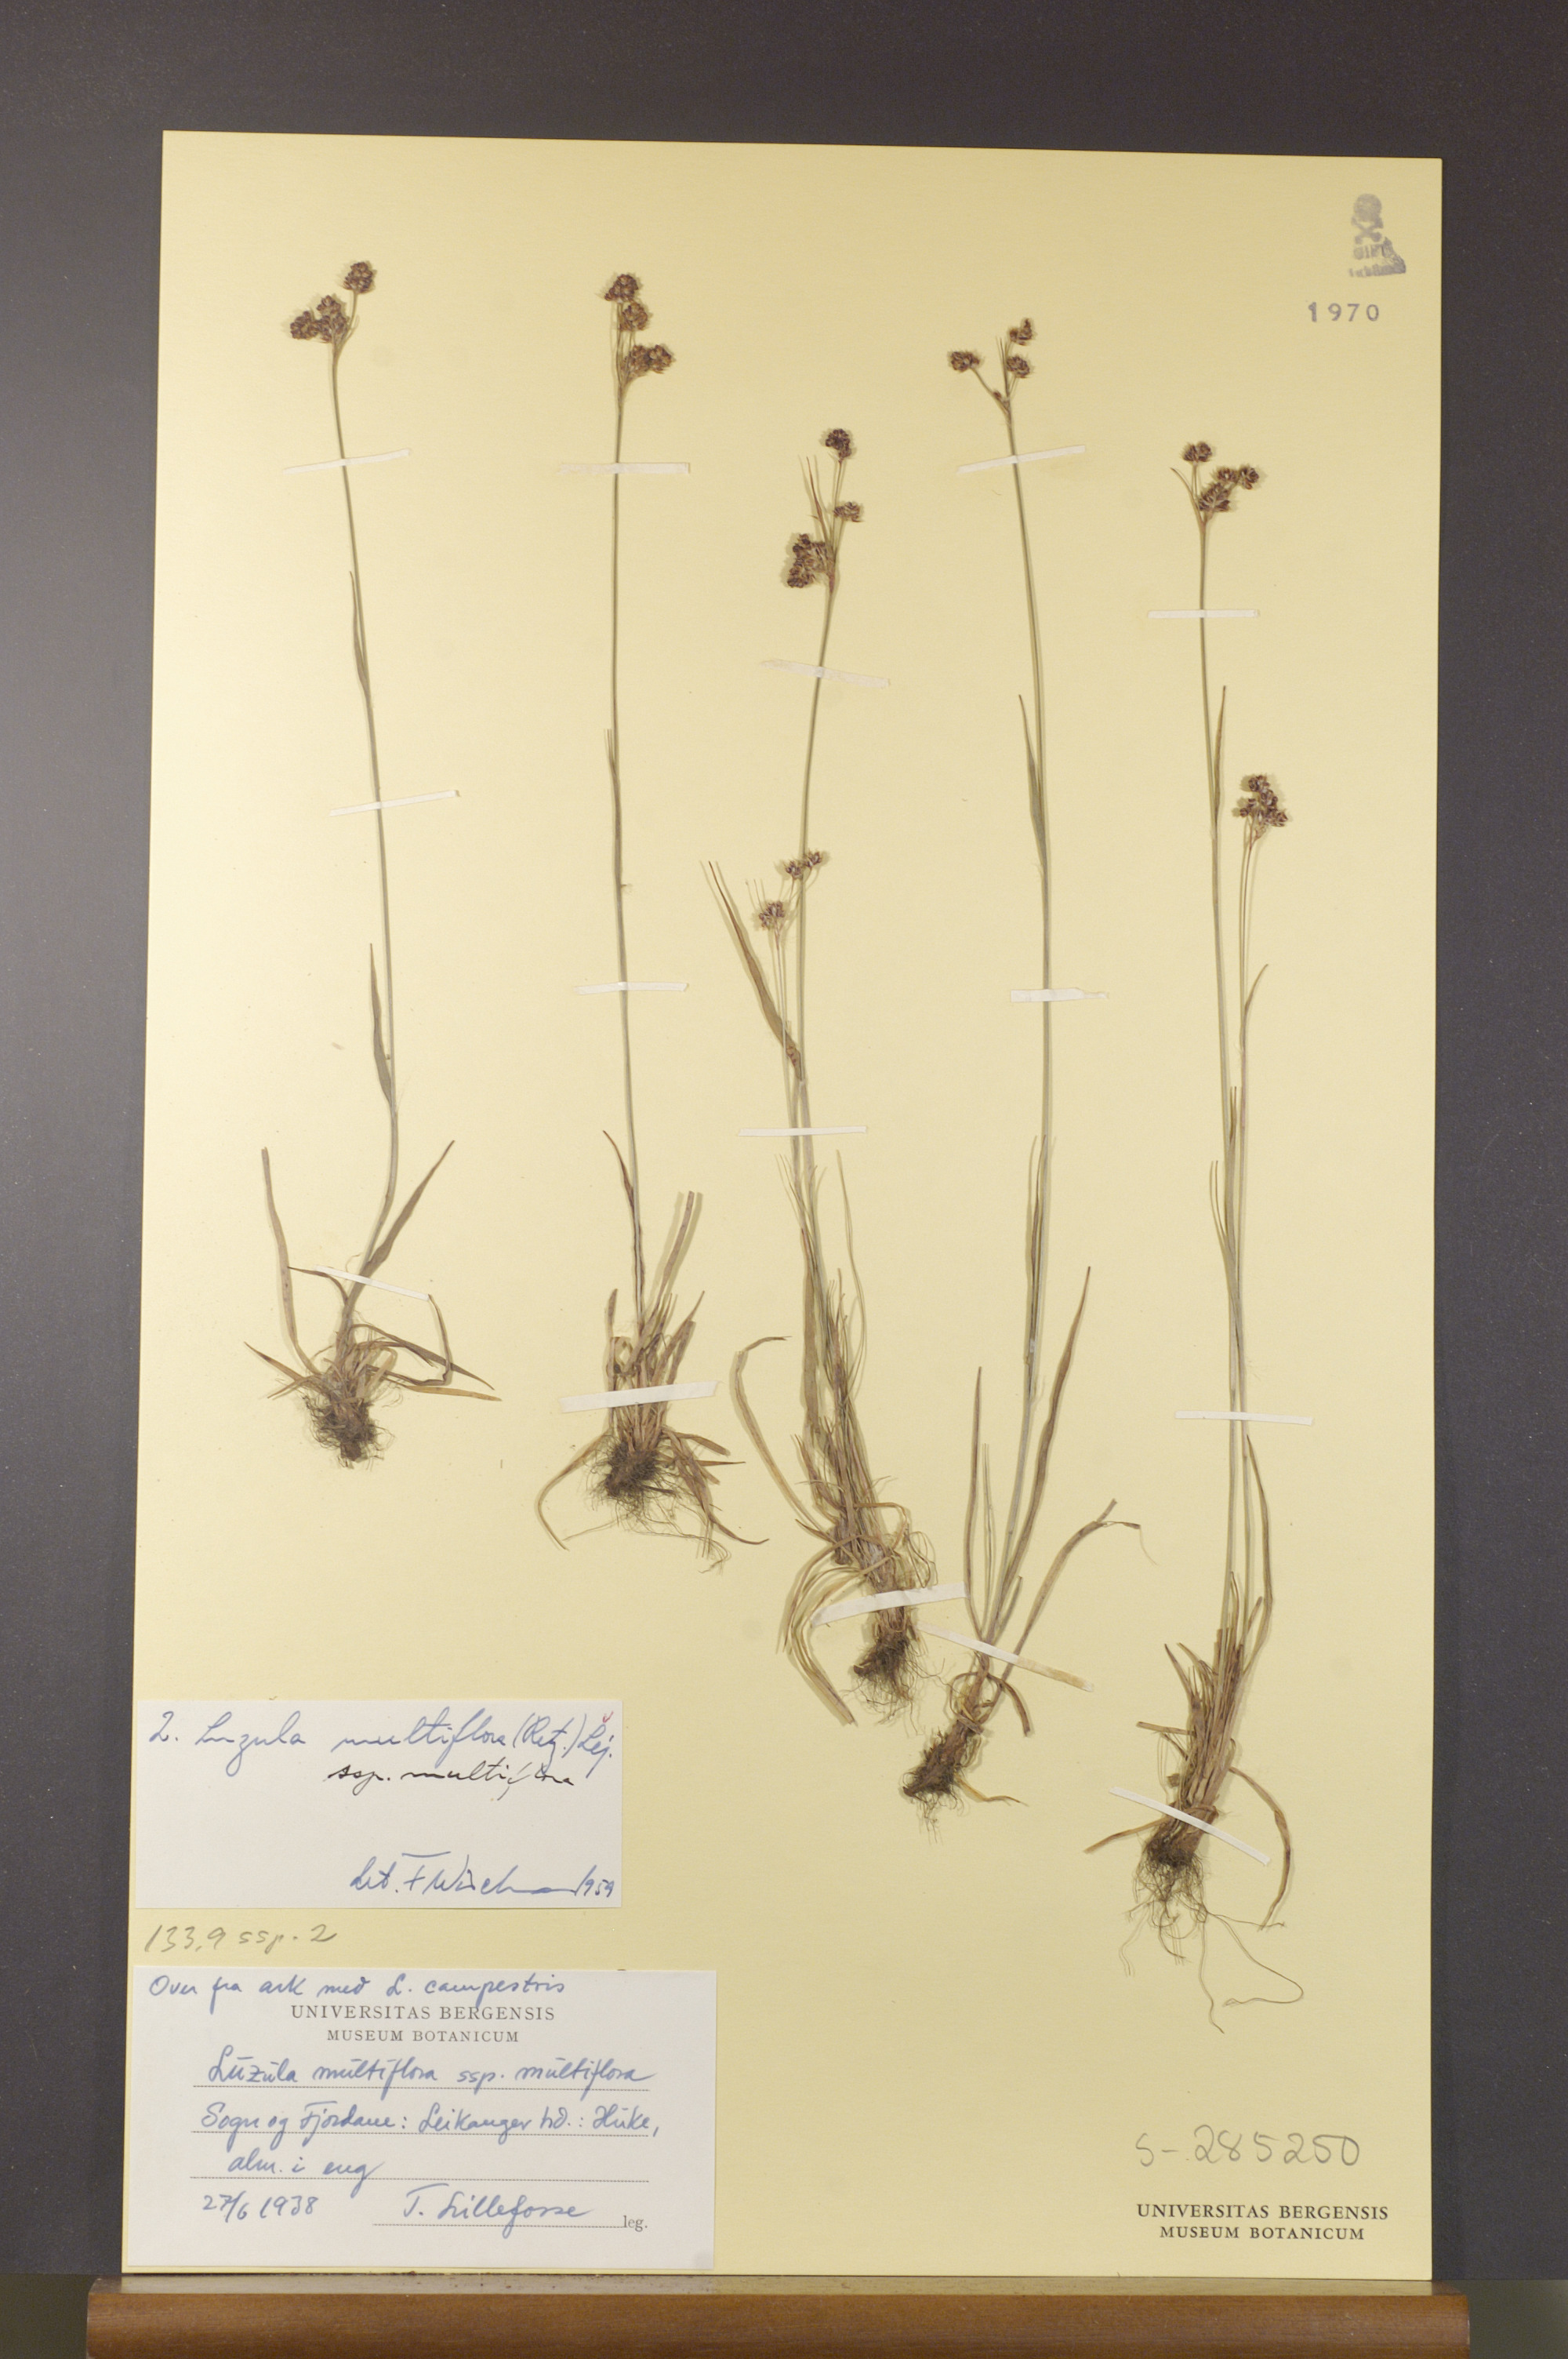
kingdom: Plantae
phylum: Tracheophyta
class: Liliopsida
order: Poales
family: Juncaceae
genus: Luzula
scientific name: Luzula multiflora
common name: Heath wood-rush
